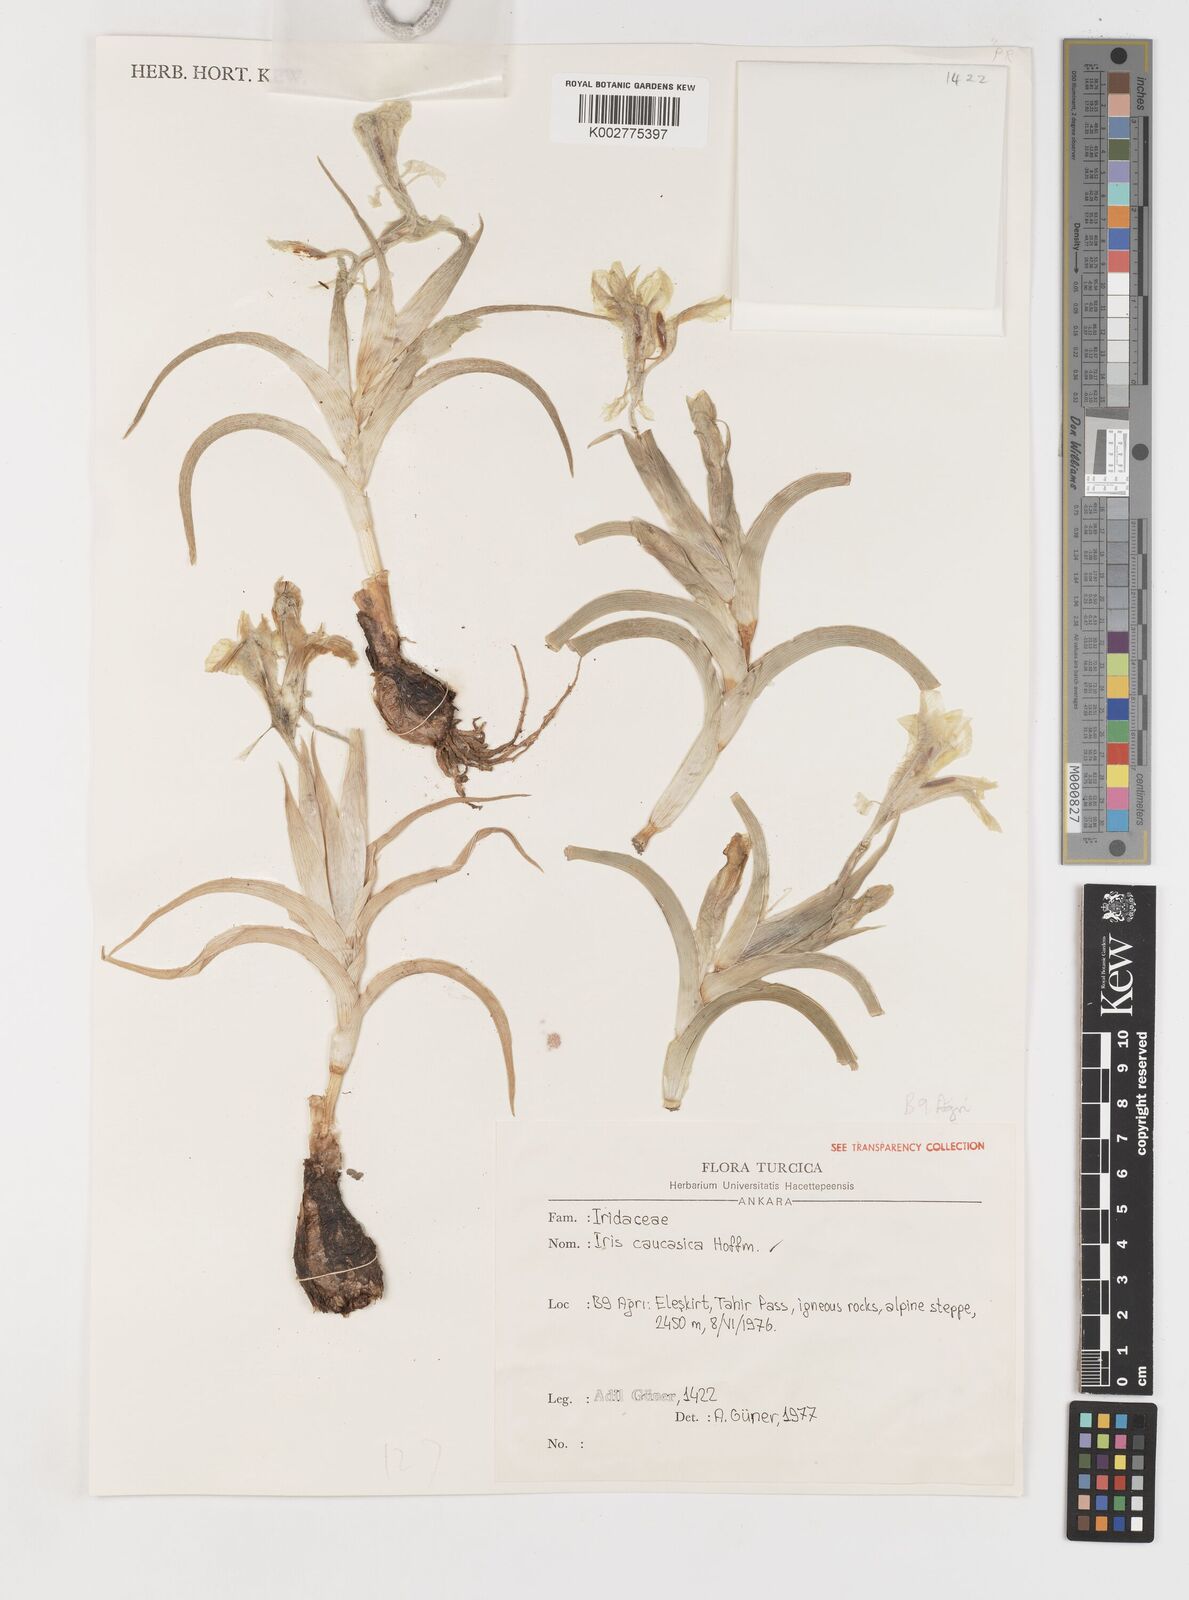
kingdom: Plantae
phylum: Tracheophyta
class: Liliopsida
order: Asparagales
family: Iridaceae
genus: Iris
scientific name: Iris caucasica
